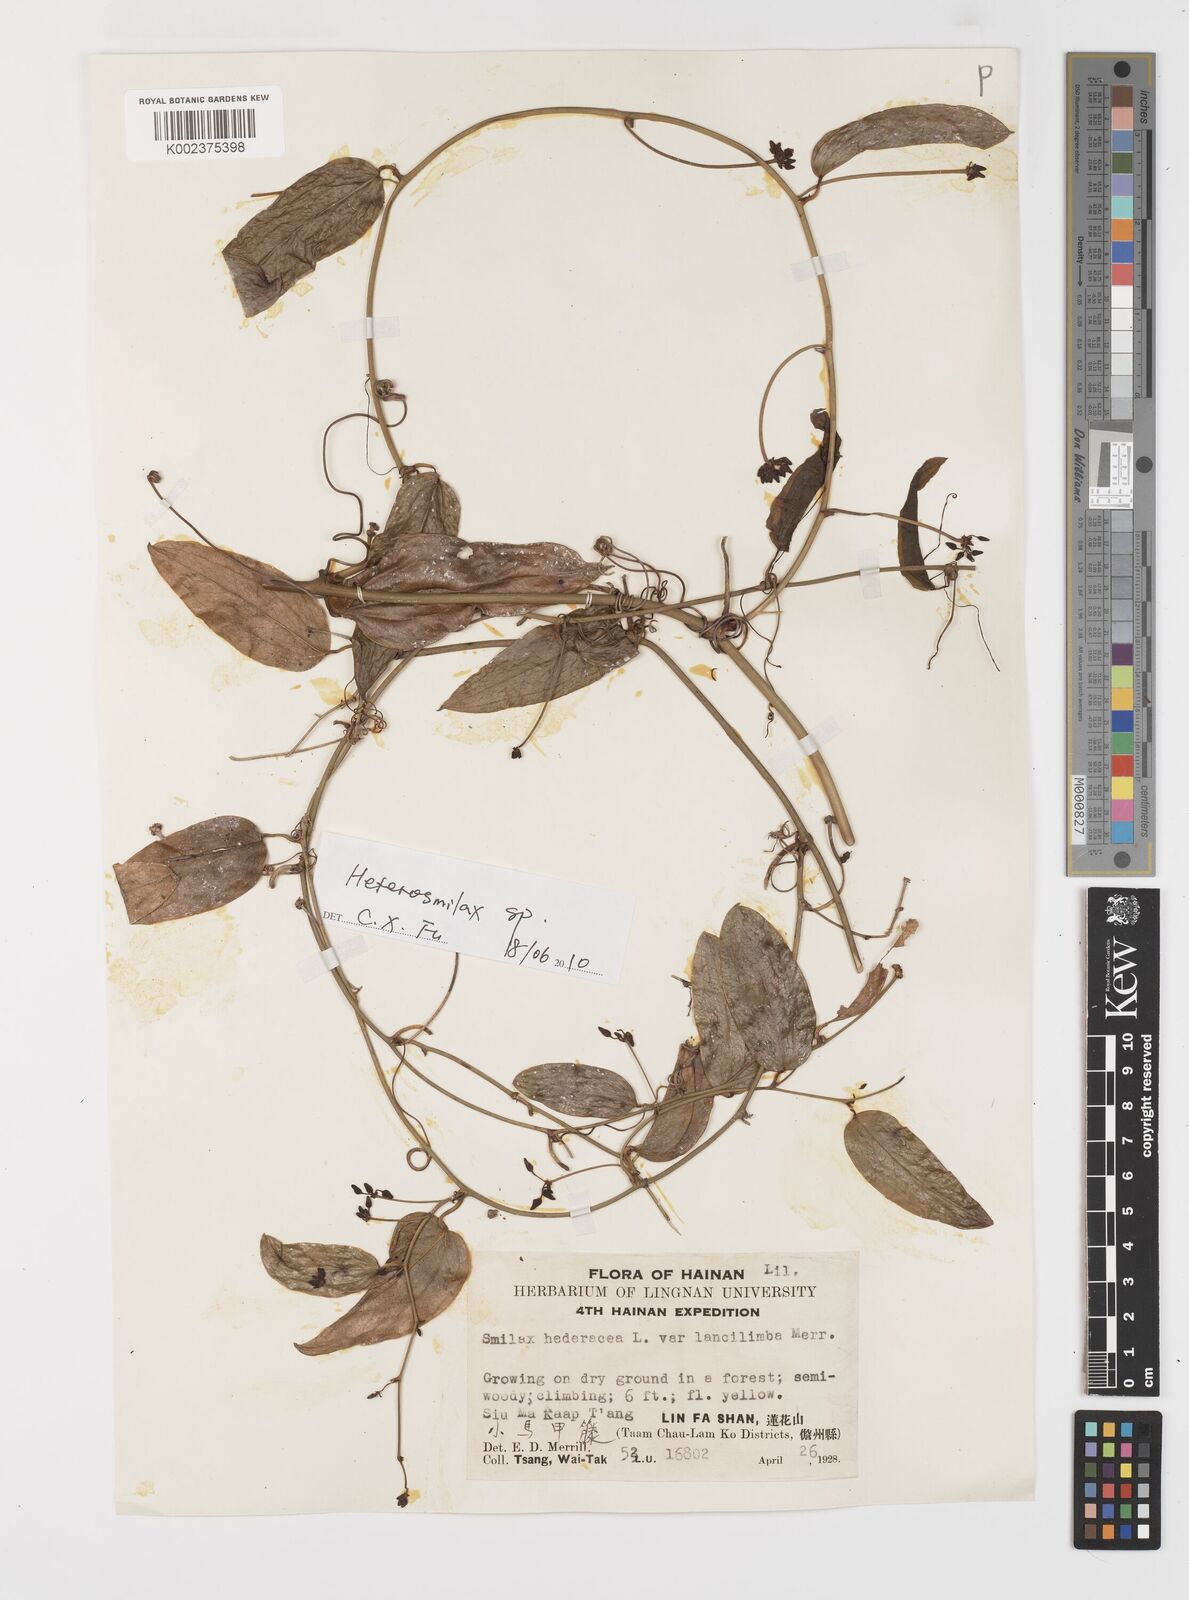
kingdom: Plantae
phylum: Tracheophyta
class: Liliopsida
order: Liliales
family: Smilacaceae
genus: Smilax
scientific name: Smilax riparia
